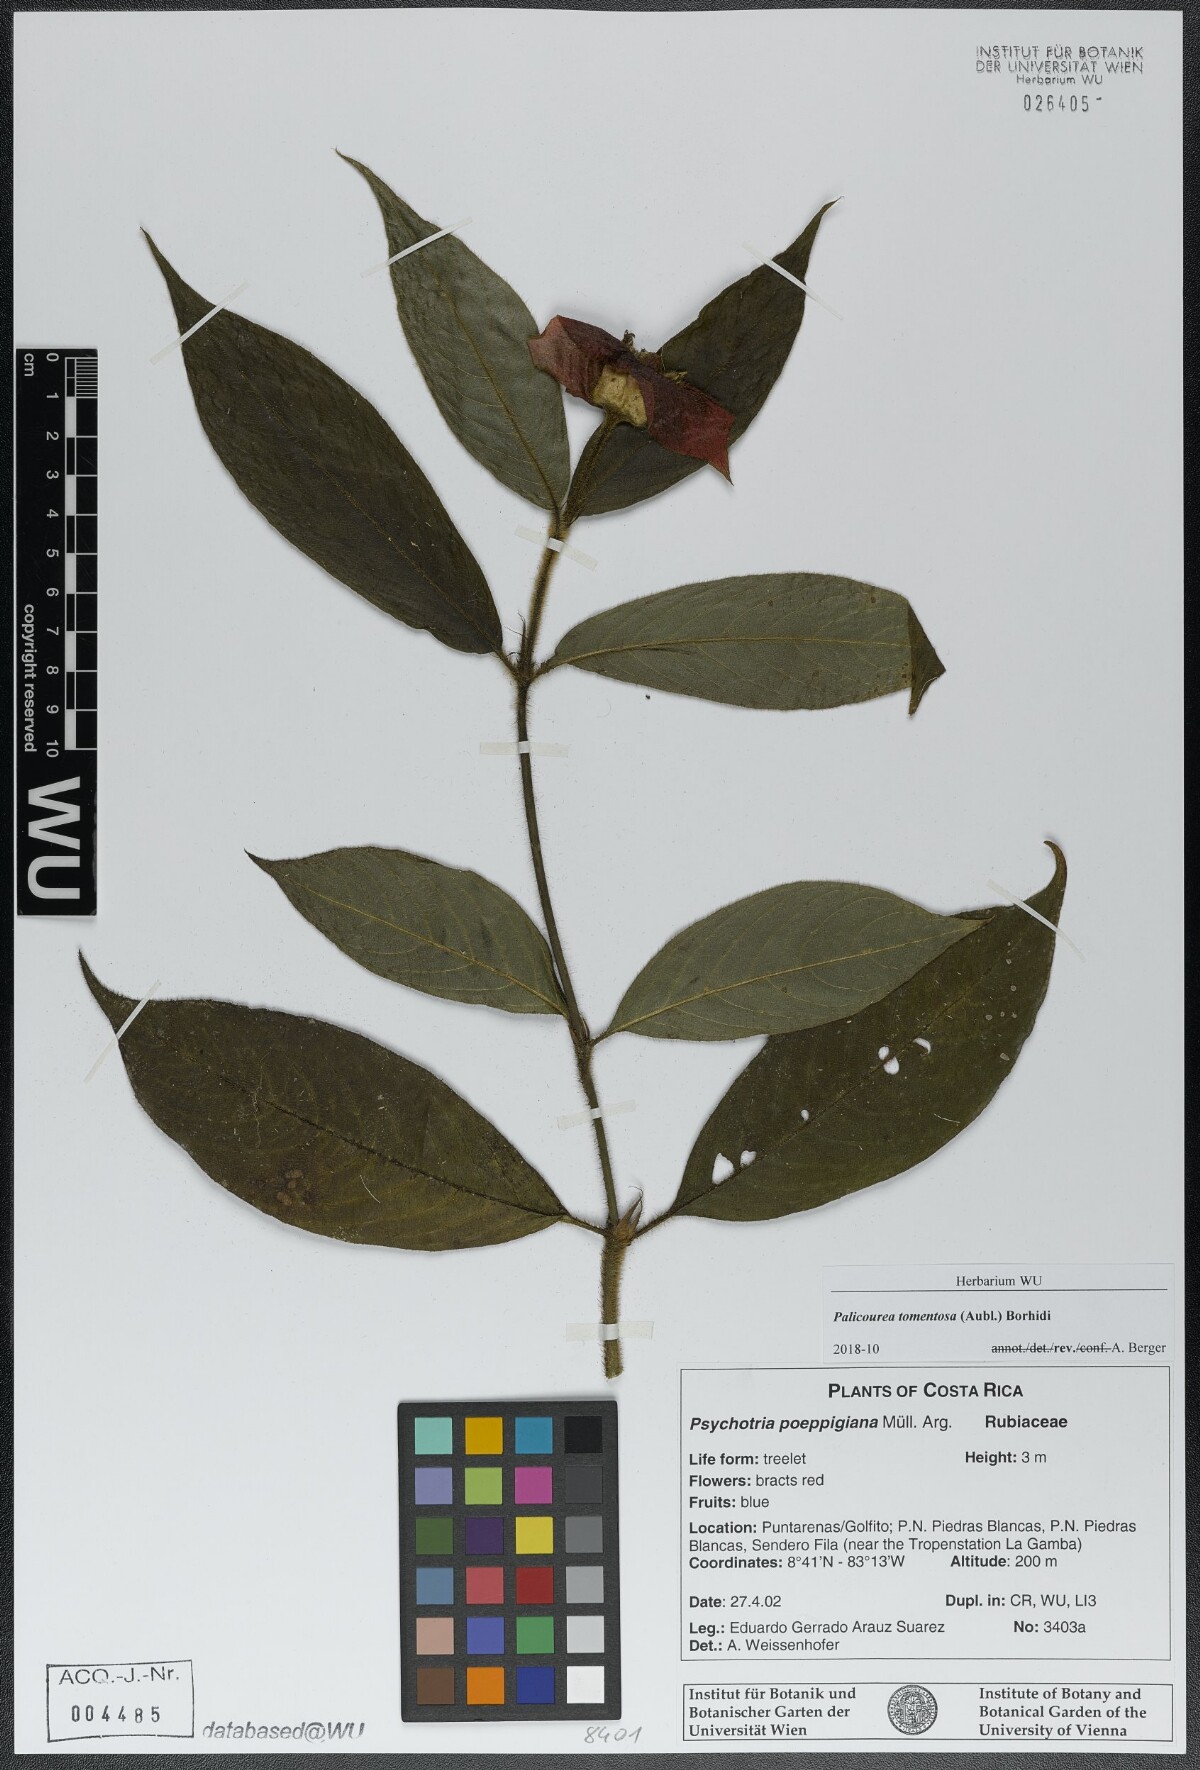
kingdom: Plantae
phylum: Tracheophyta
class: Magnoliopsida
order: Gentianales
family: Rubiaceae
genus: Palicourea
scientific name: Palicourea tomentosa
